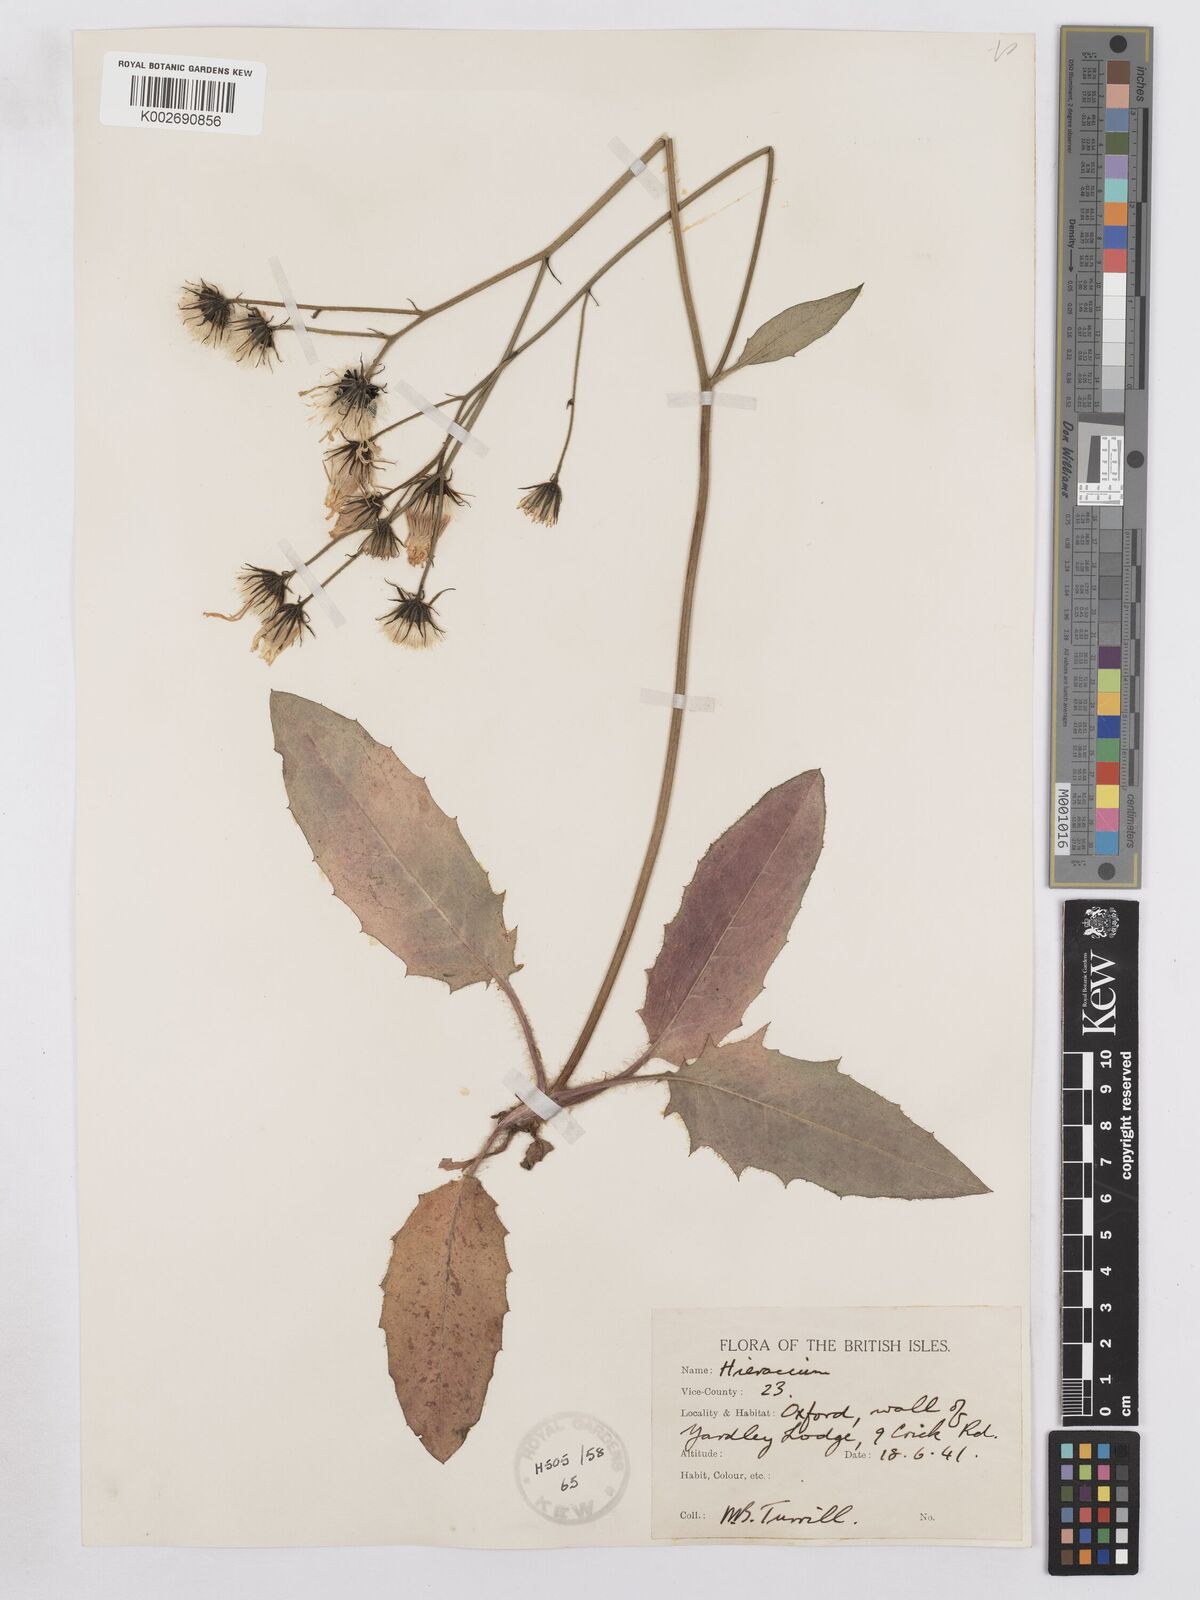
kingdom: Plantae
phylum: Tracheophyta
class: Magnoliopsida
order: Asterales
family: Asteraceae
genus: Hieracium
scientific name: Hieracium murorum
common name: Wall hawkweed
